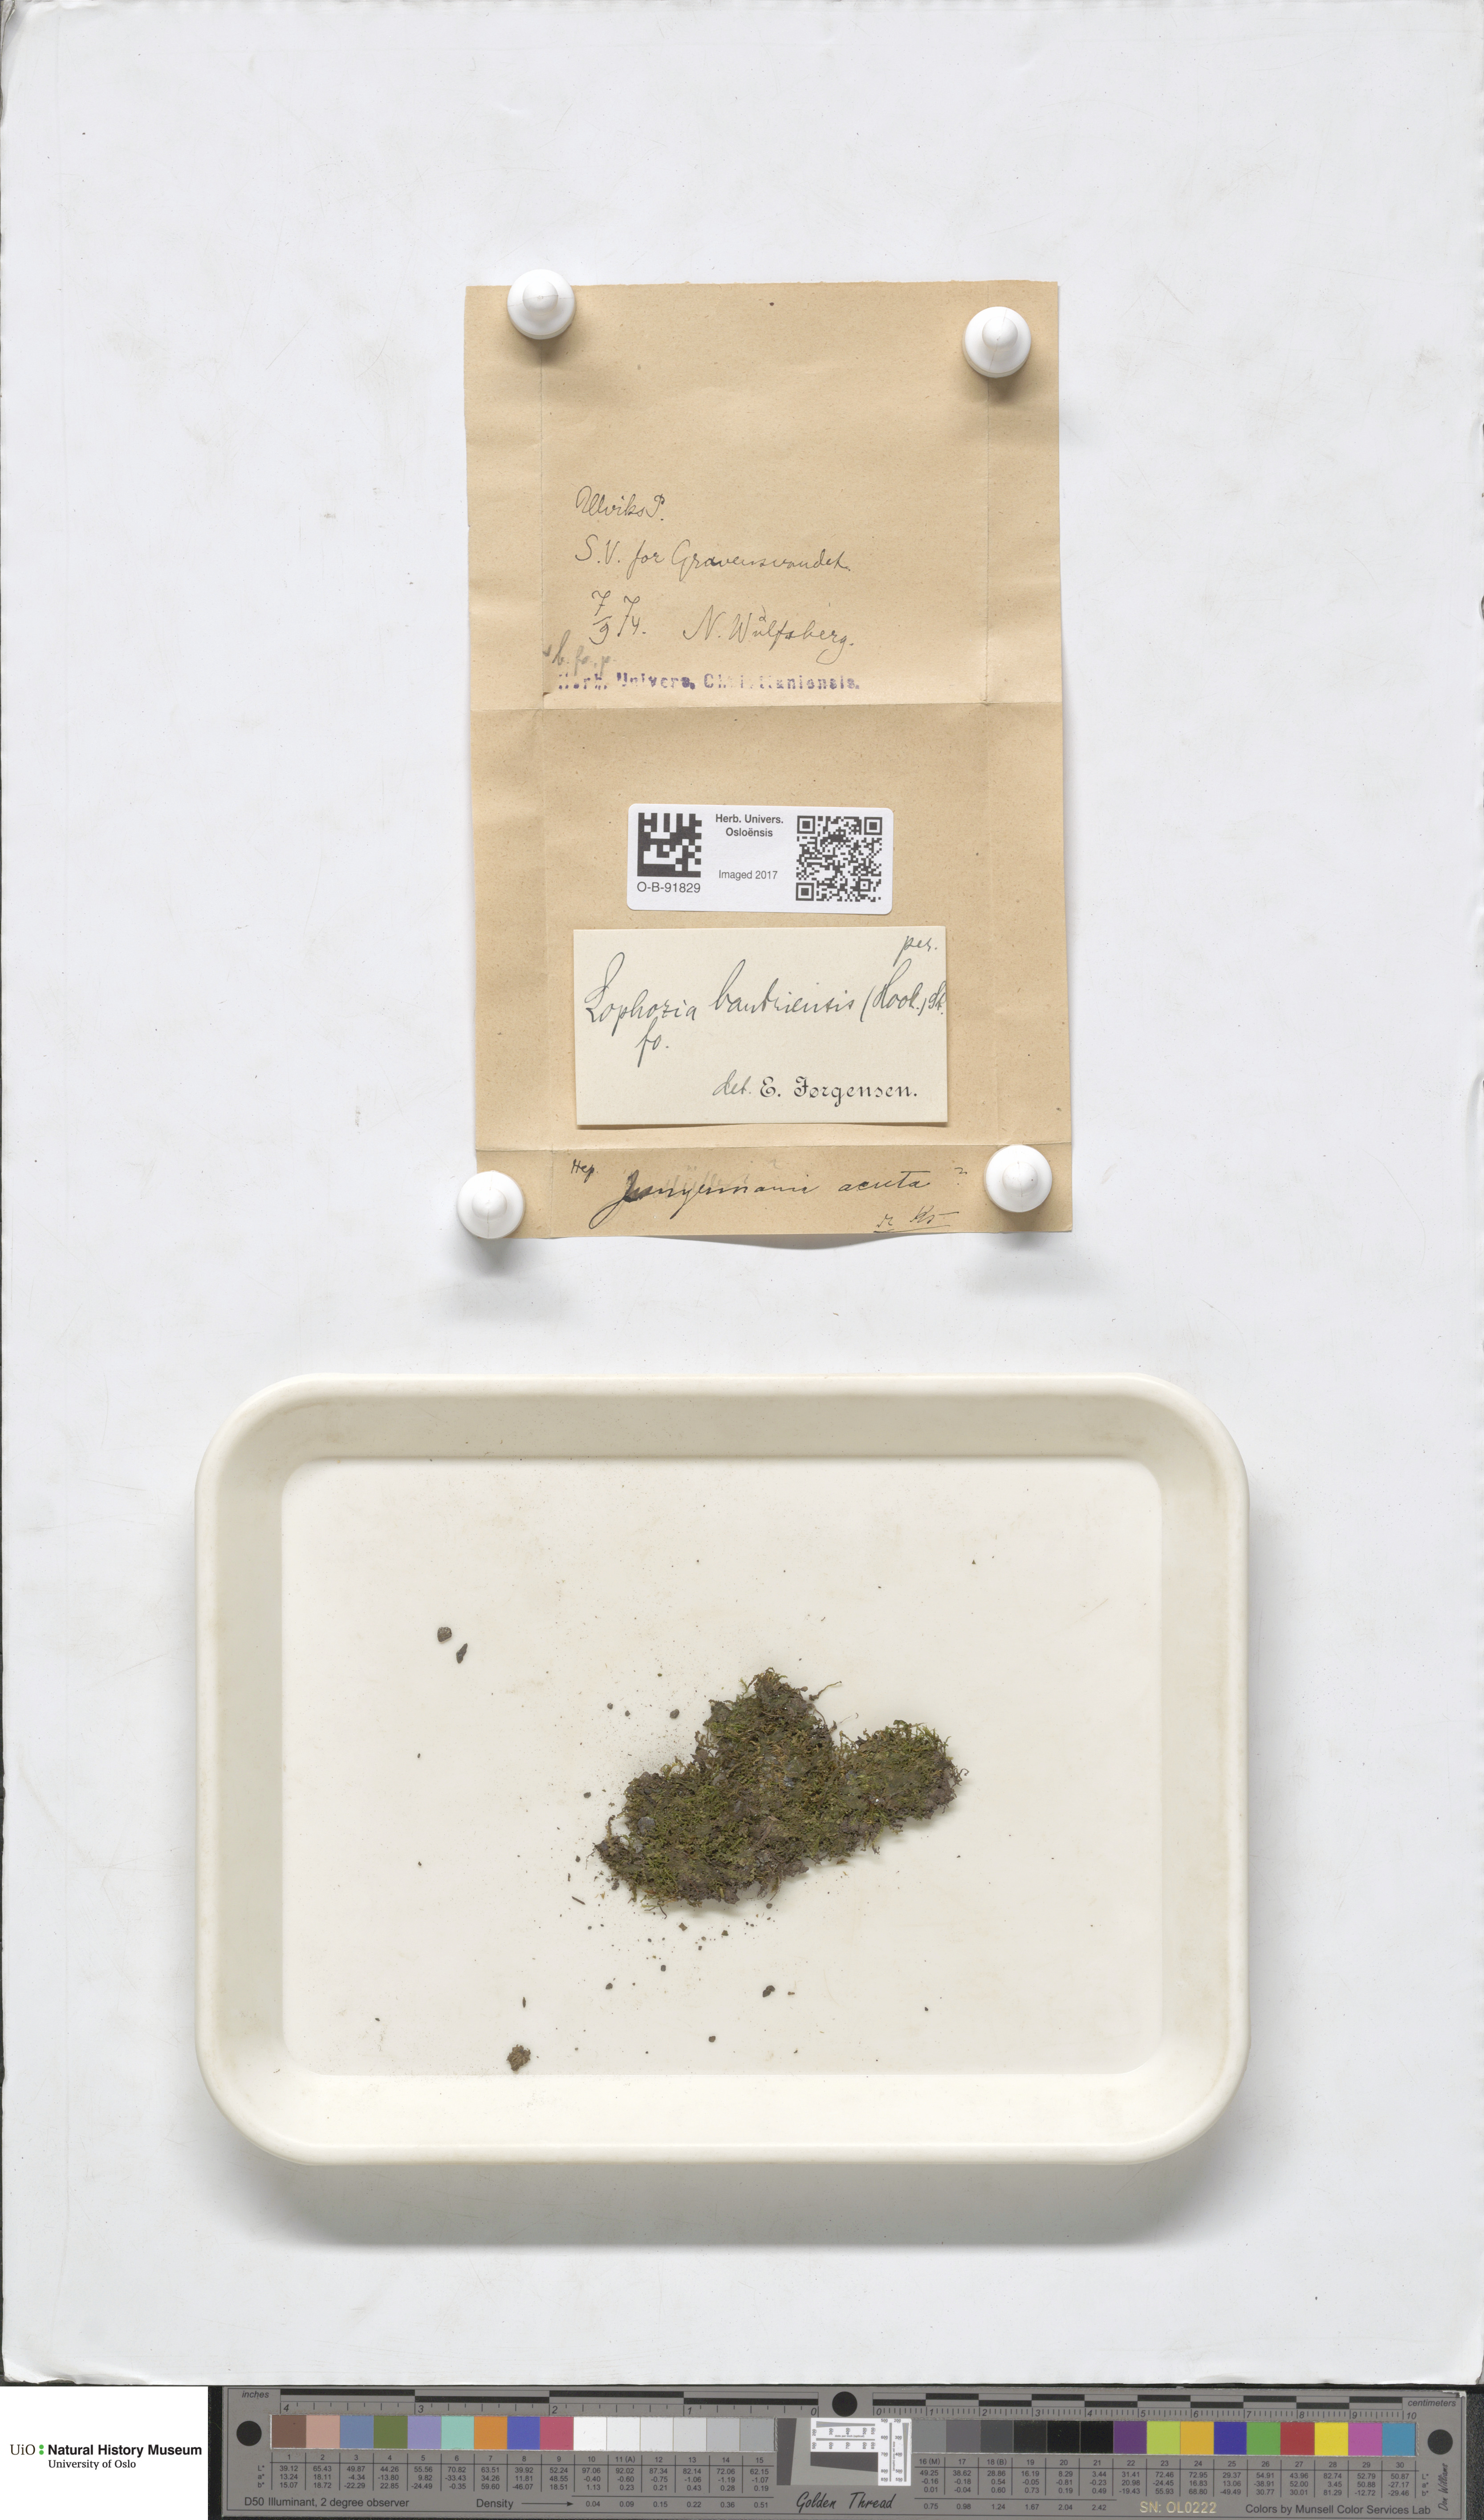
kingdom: Plantae
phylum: Marchantiophyta
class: Jungermanniopsida
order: Jungermanniales
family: Jungermanniaceae
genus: Mesoptychia
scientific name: Mesoptychia bantriensis
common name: Bantry notchwort
